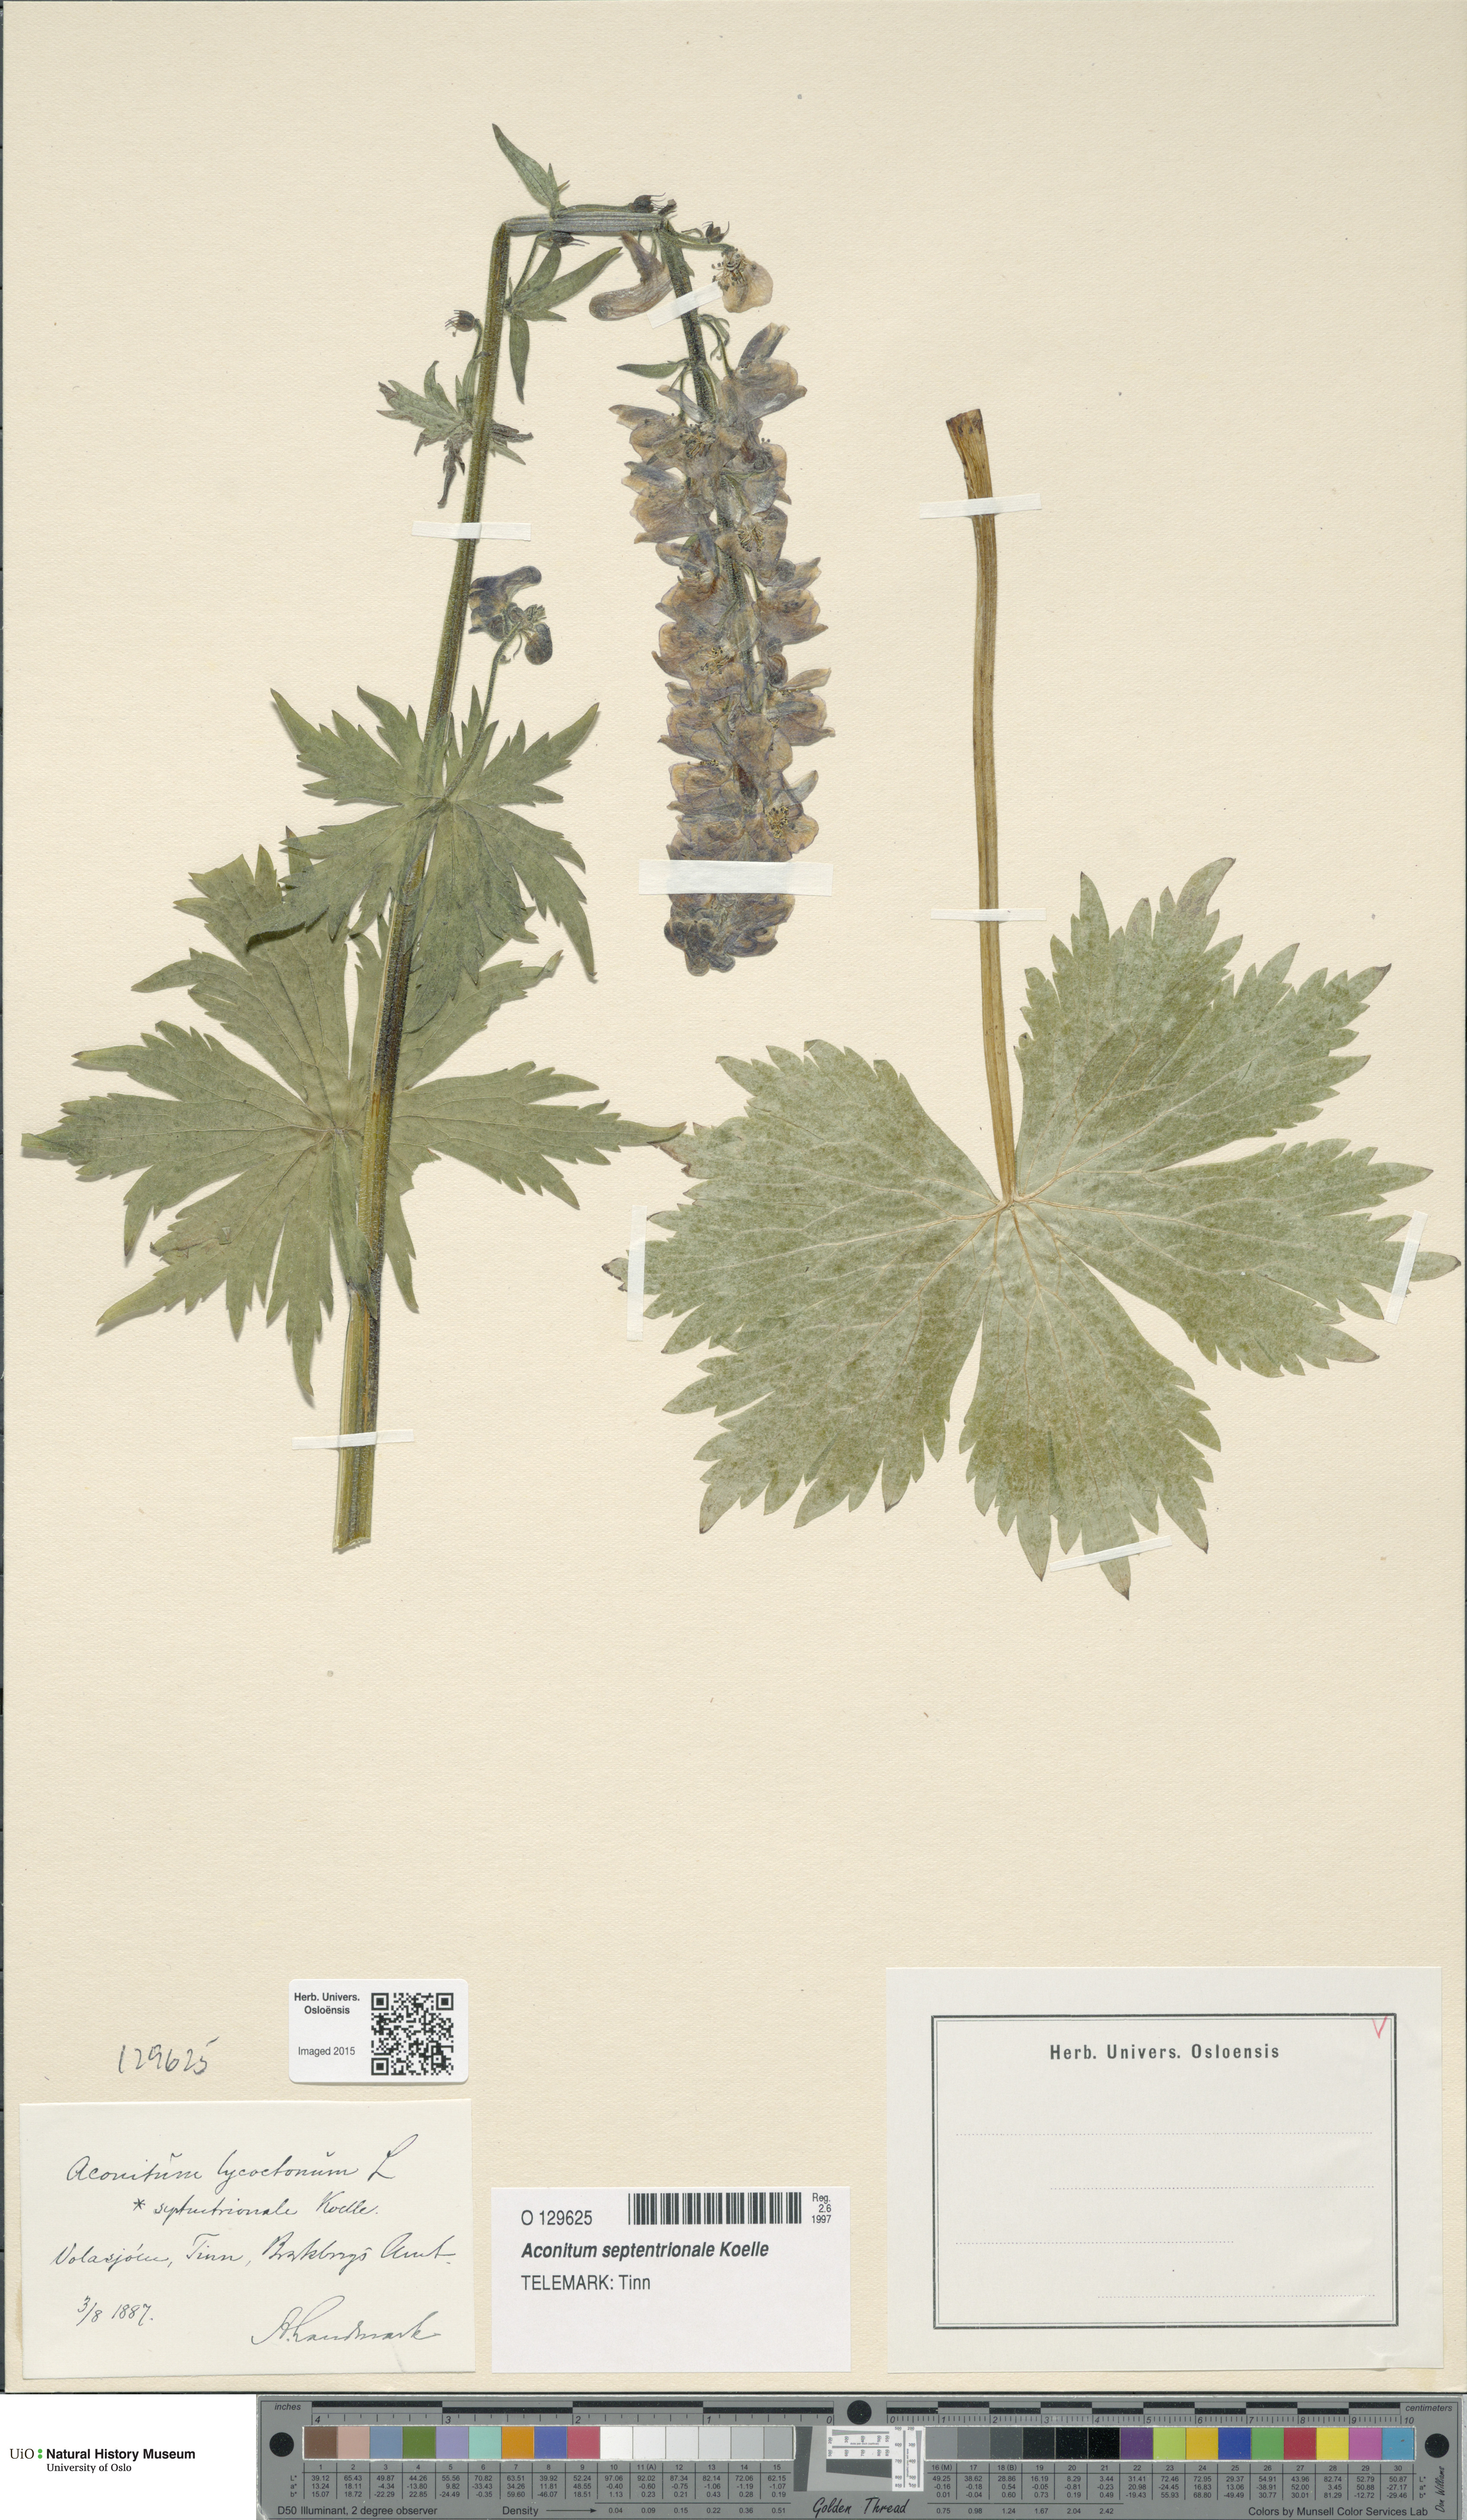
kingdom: Plantae
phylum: Tracheophyta
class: Magnoliopsida
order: Ranunculales
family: Ranunculaceae
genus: Aconitum
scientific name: Aconitum septentrionale
